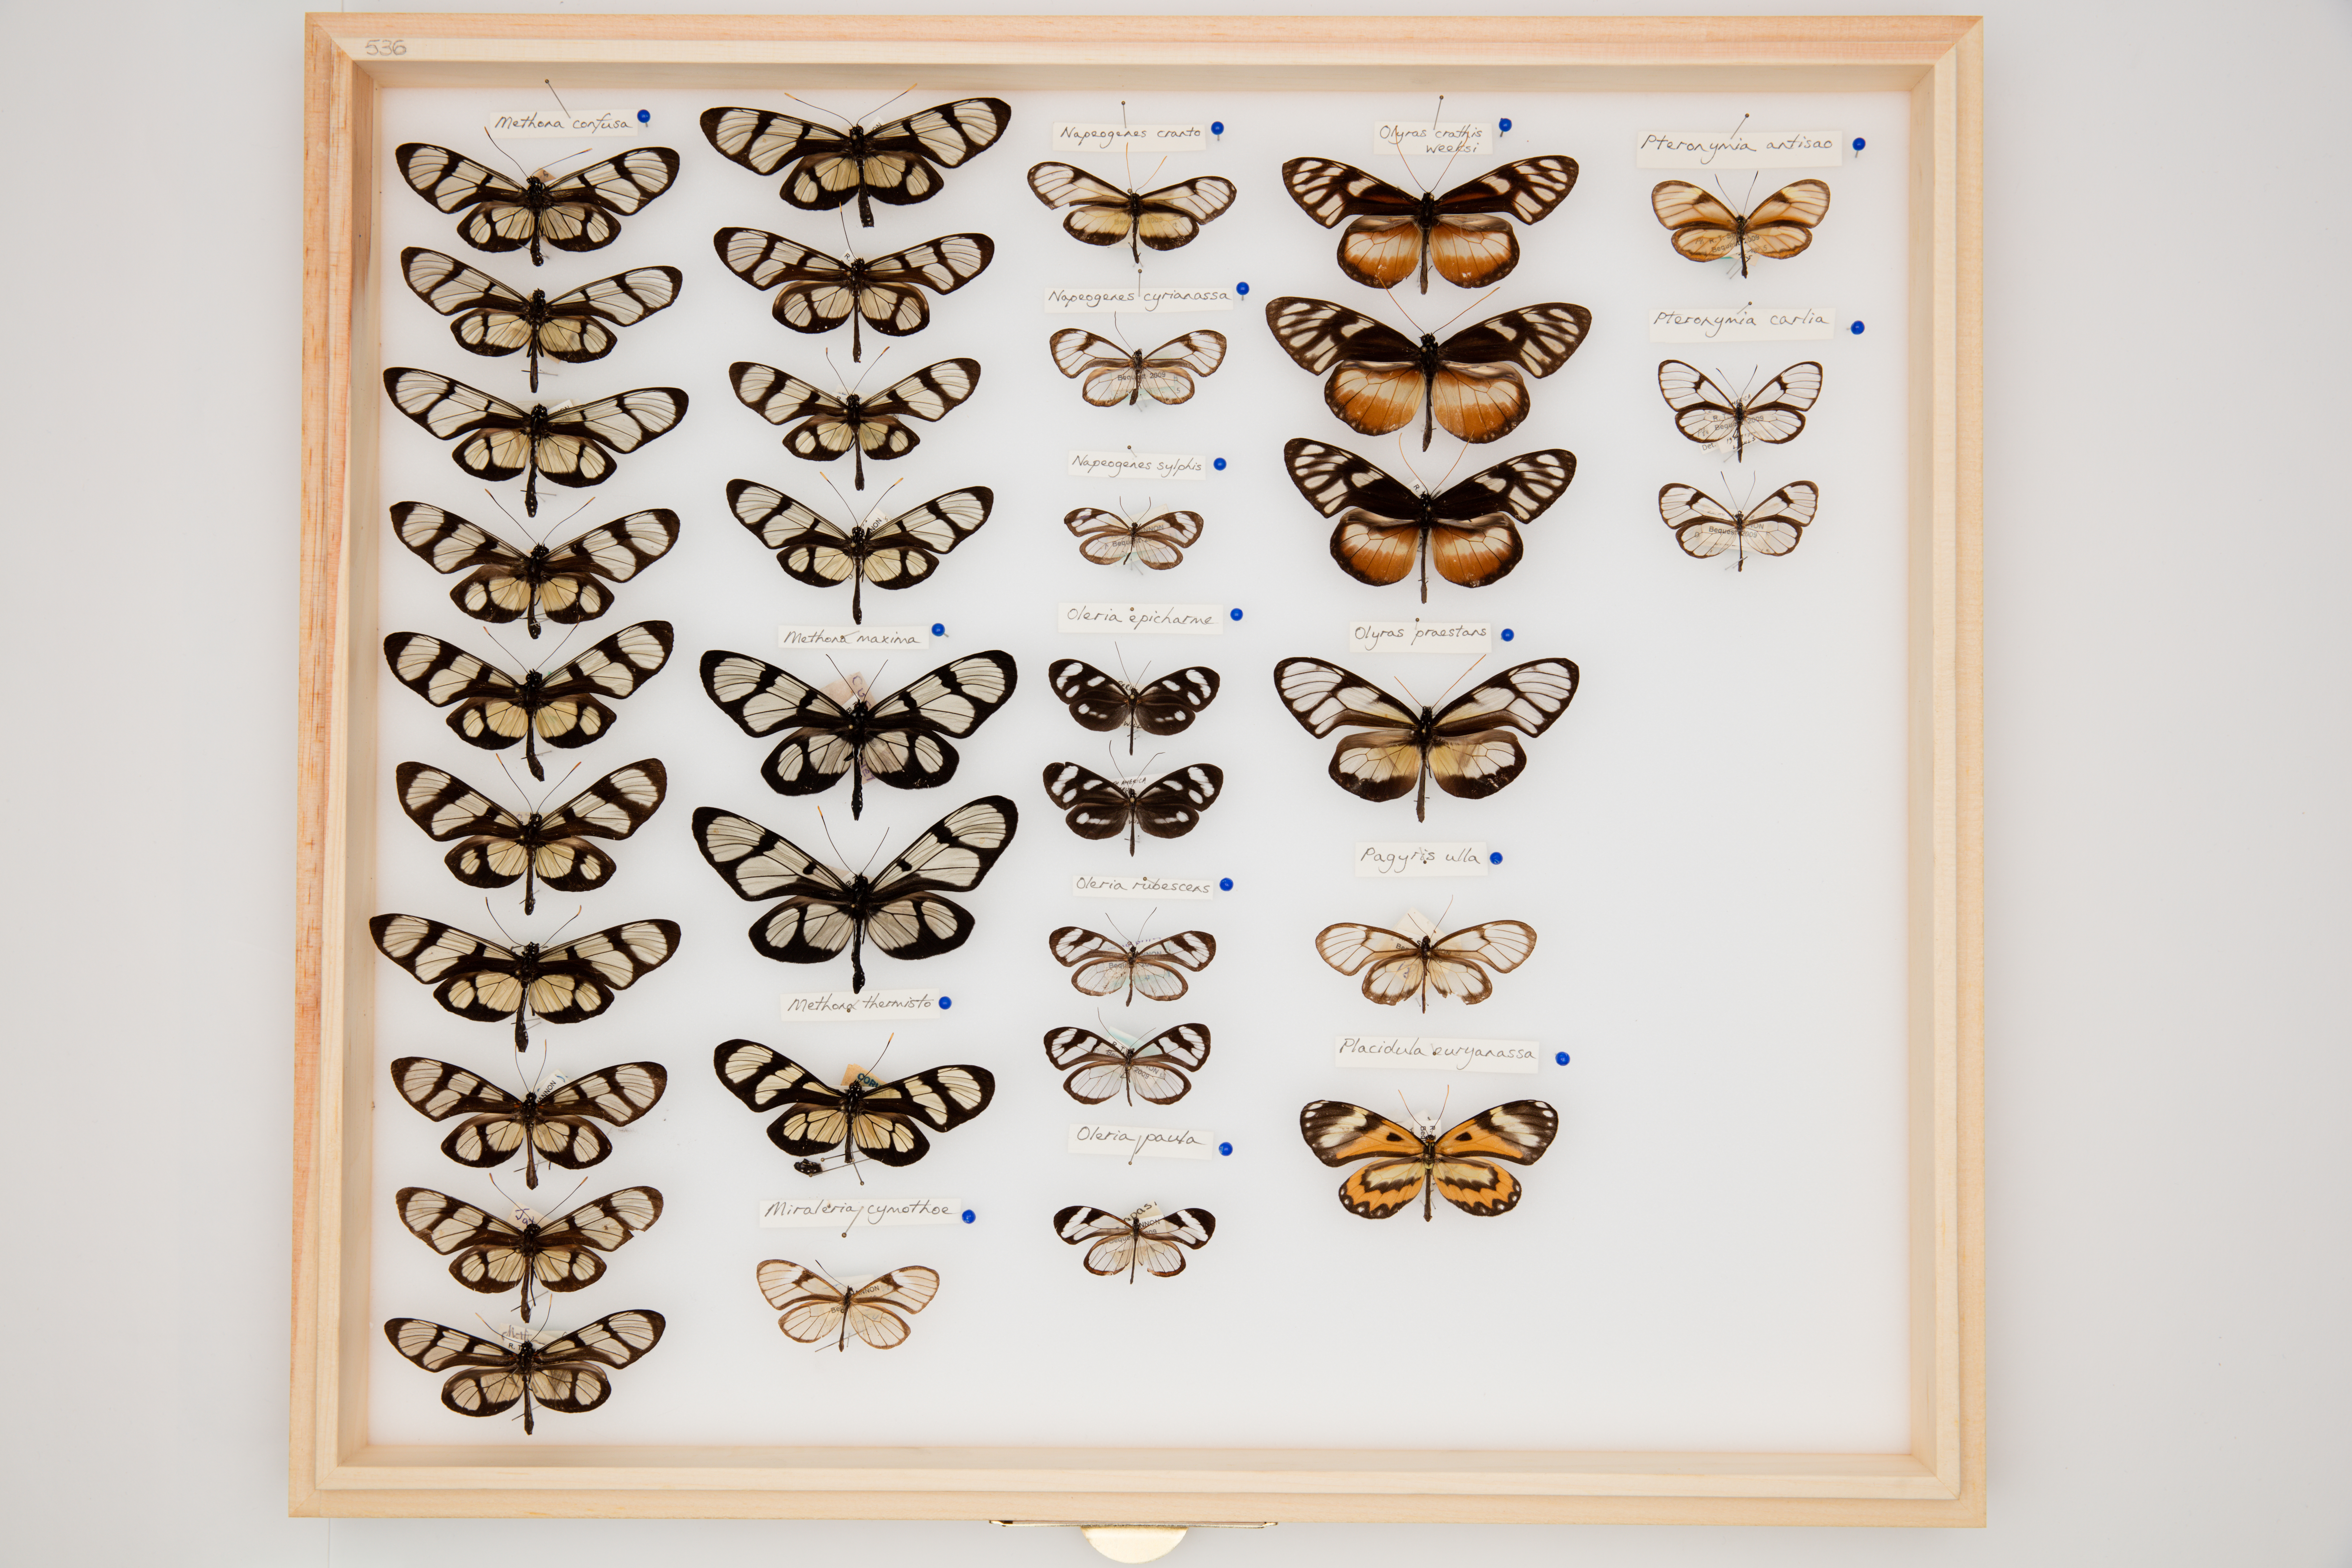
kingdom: Animalia
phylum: Arthropoda
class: Insecta
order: Lepidoptera
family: Nymphalidae
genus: Oleria
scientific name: Oleria rubescens
